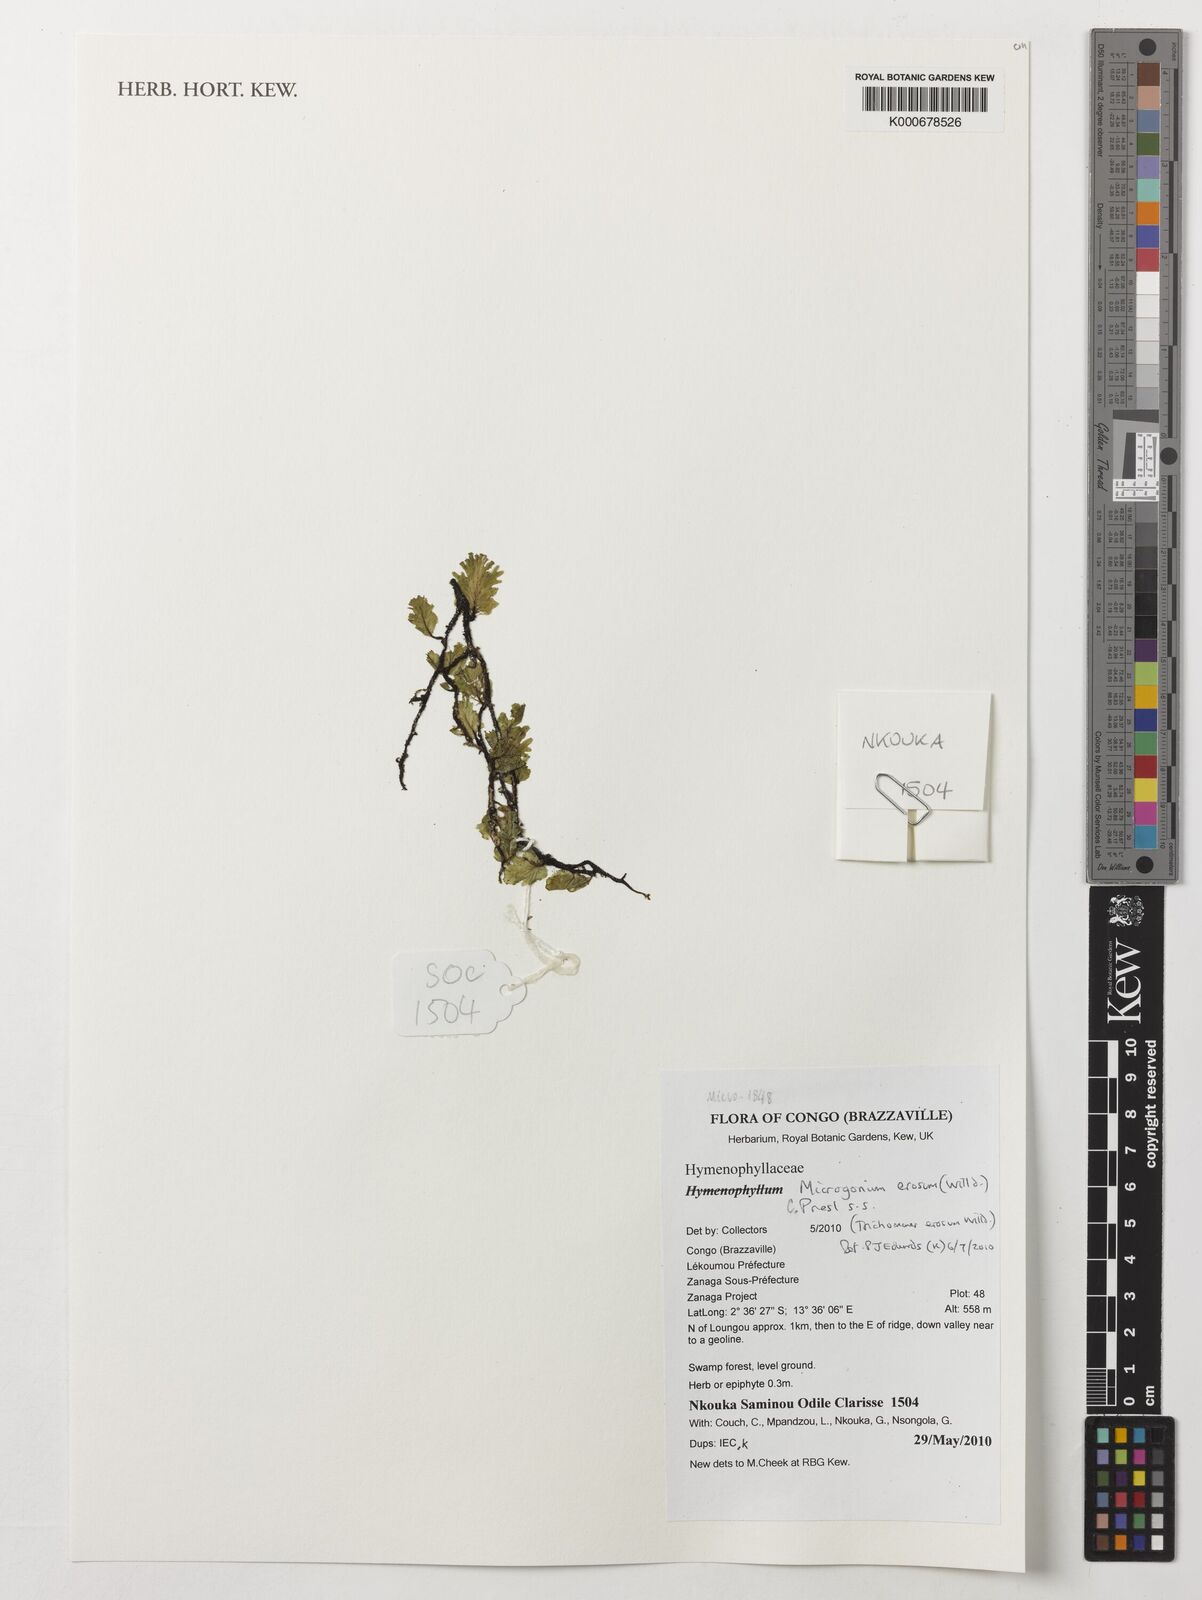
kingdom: Plantae
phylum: Tracheophyta
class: Polypodiopsida
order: Hymenophyllales
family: Hymenophyllaceae
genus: Didymoglossum
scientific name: Didymoglossum erosum
